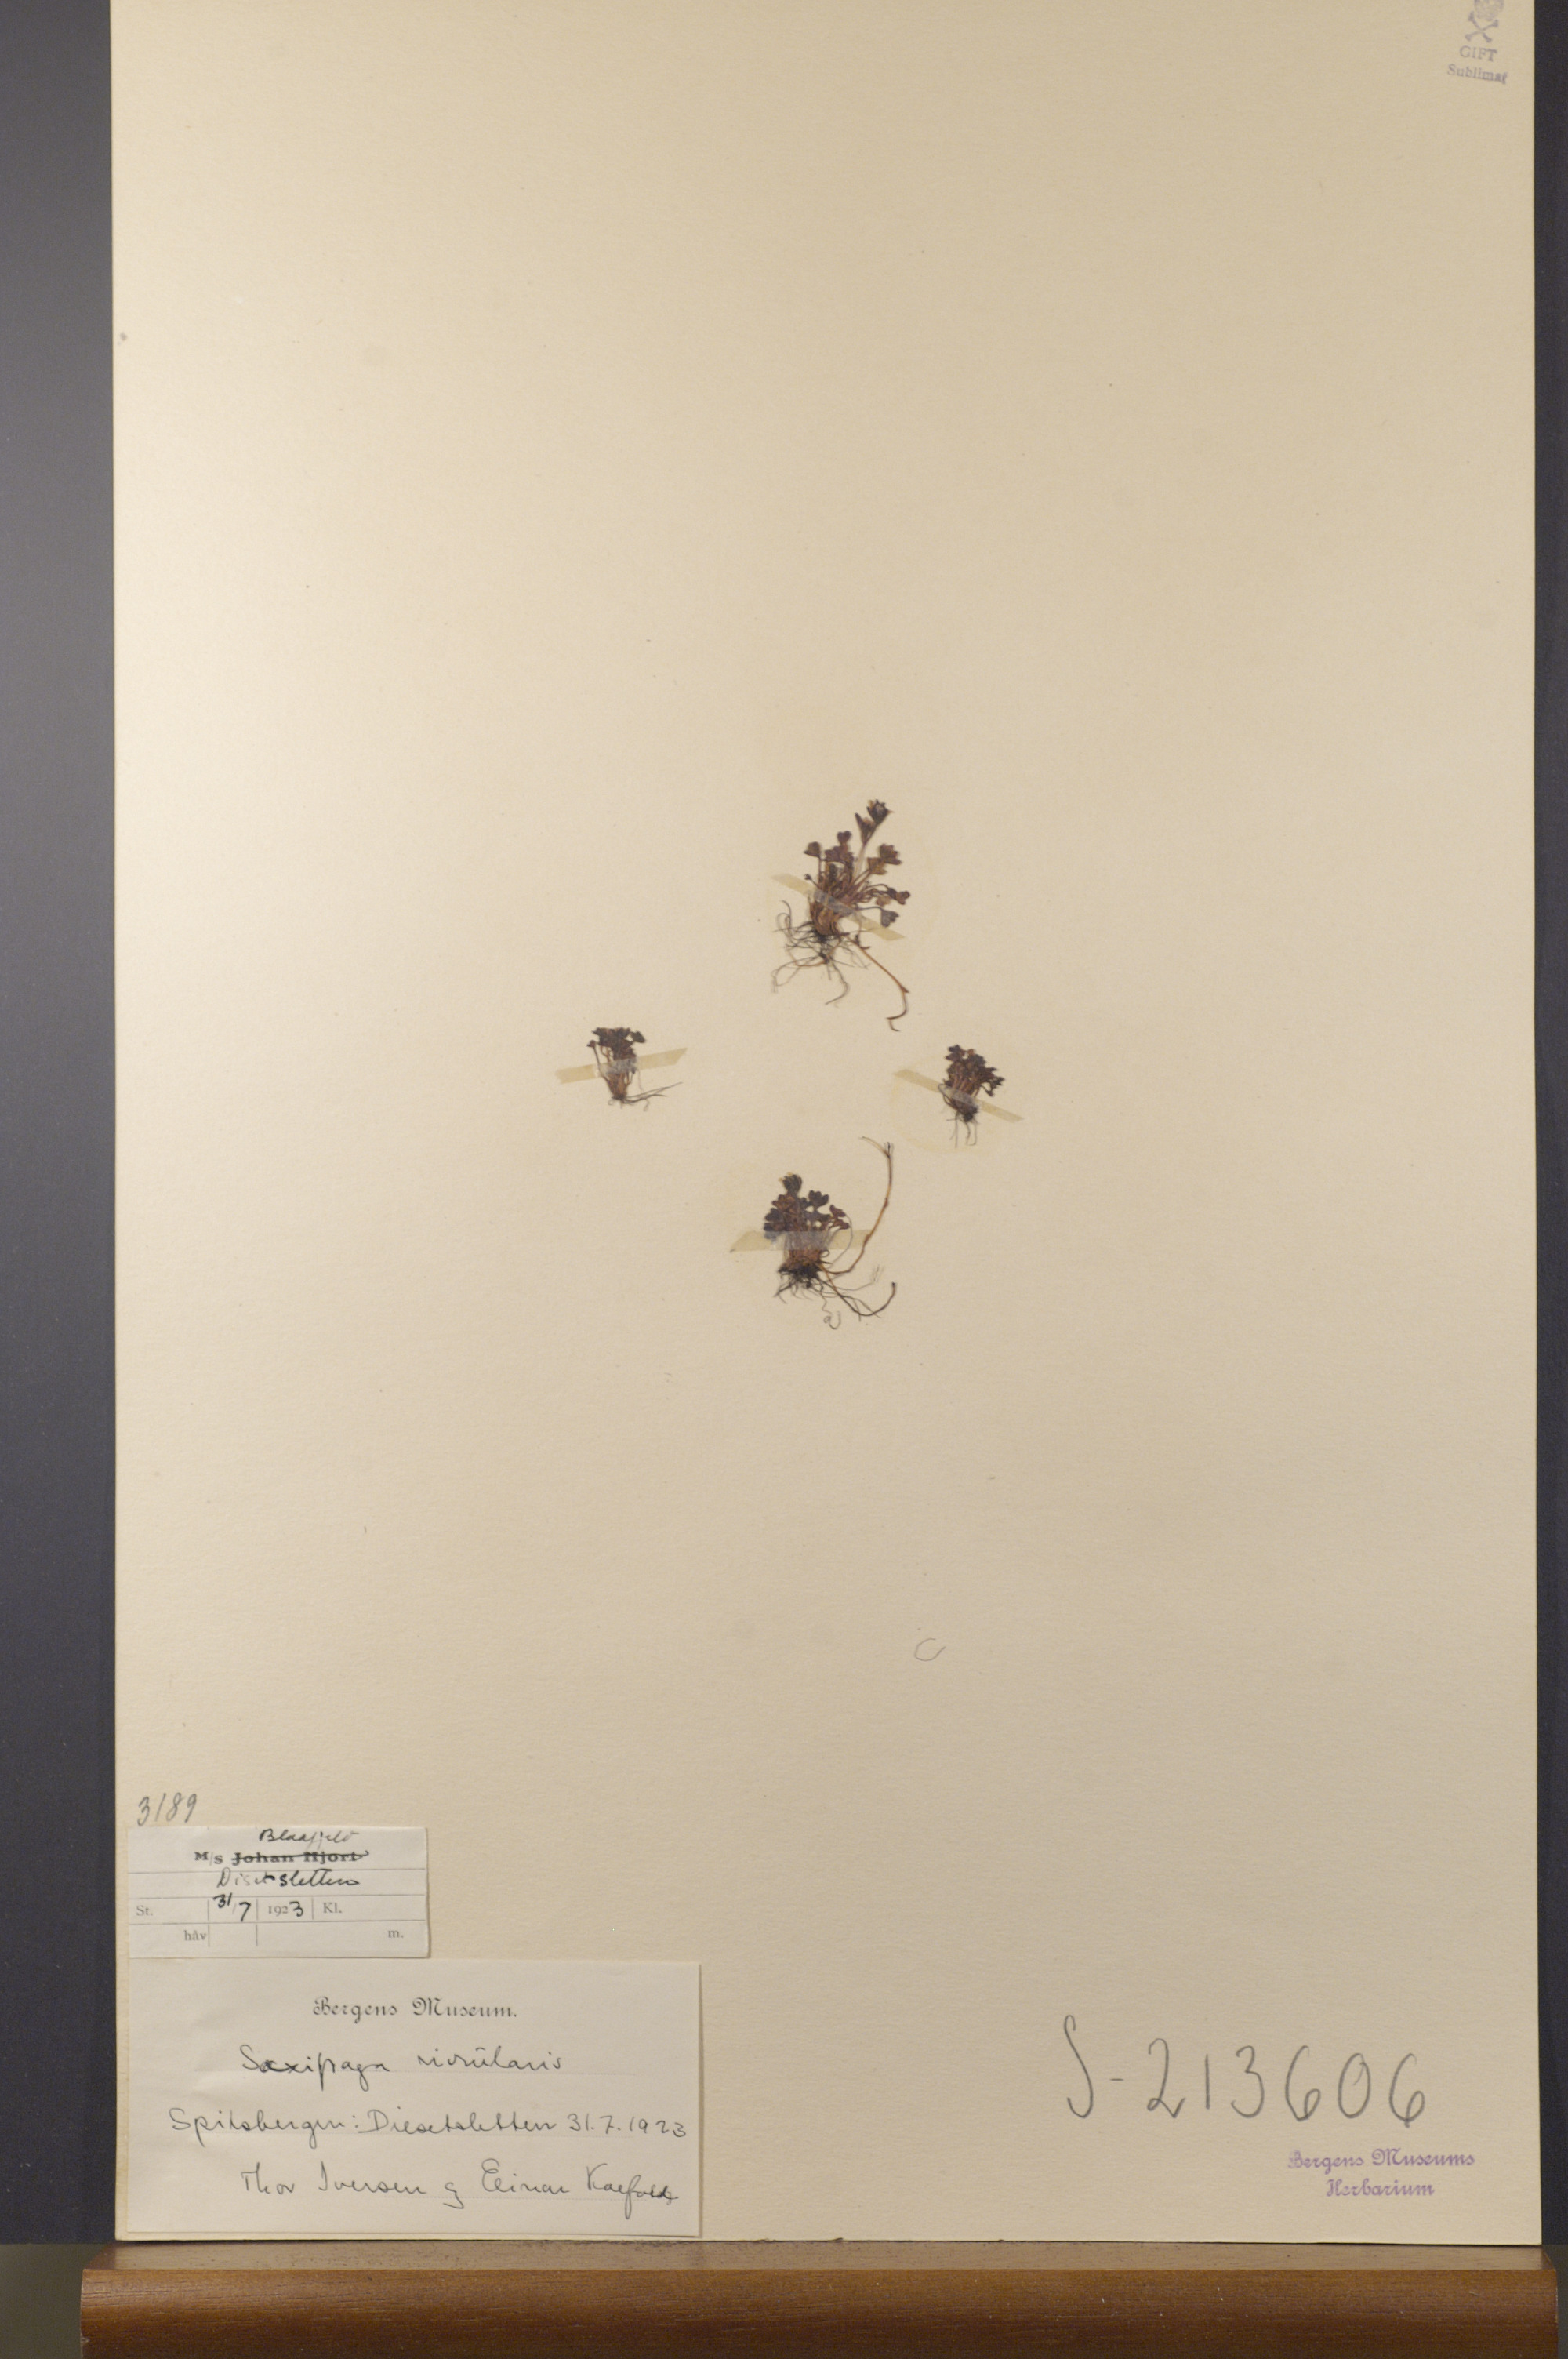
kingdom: Plantae
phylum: Tracheophyta
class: Magnoliopsida
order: Saxifragales
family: Saxifragaceae
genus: Saxifraga
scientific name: Saxifraga rivularis
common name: Highland saxifrage
